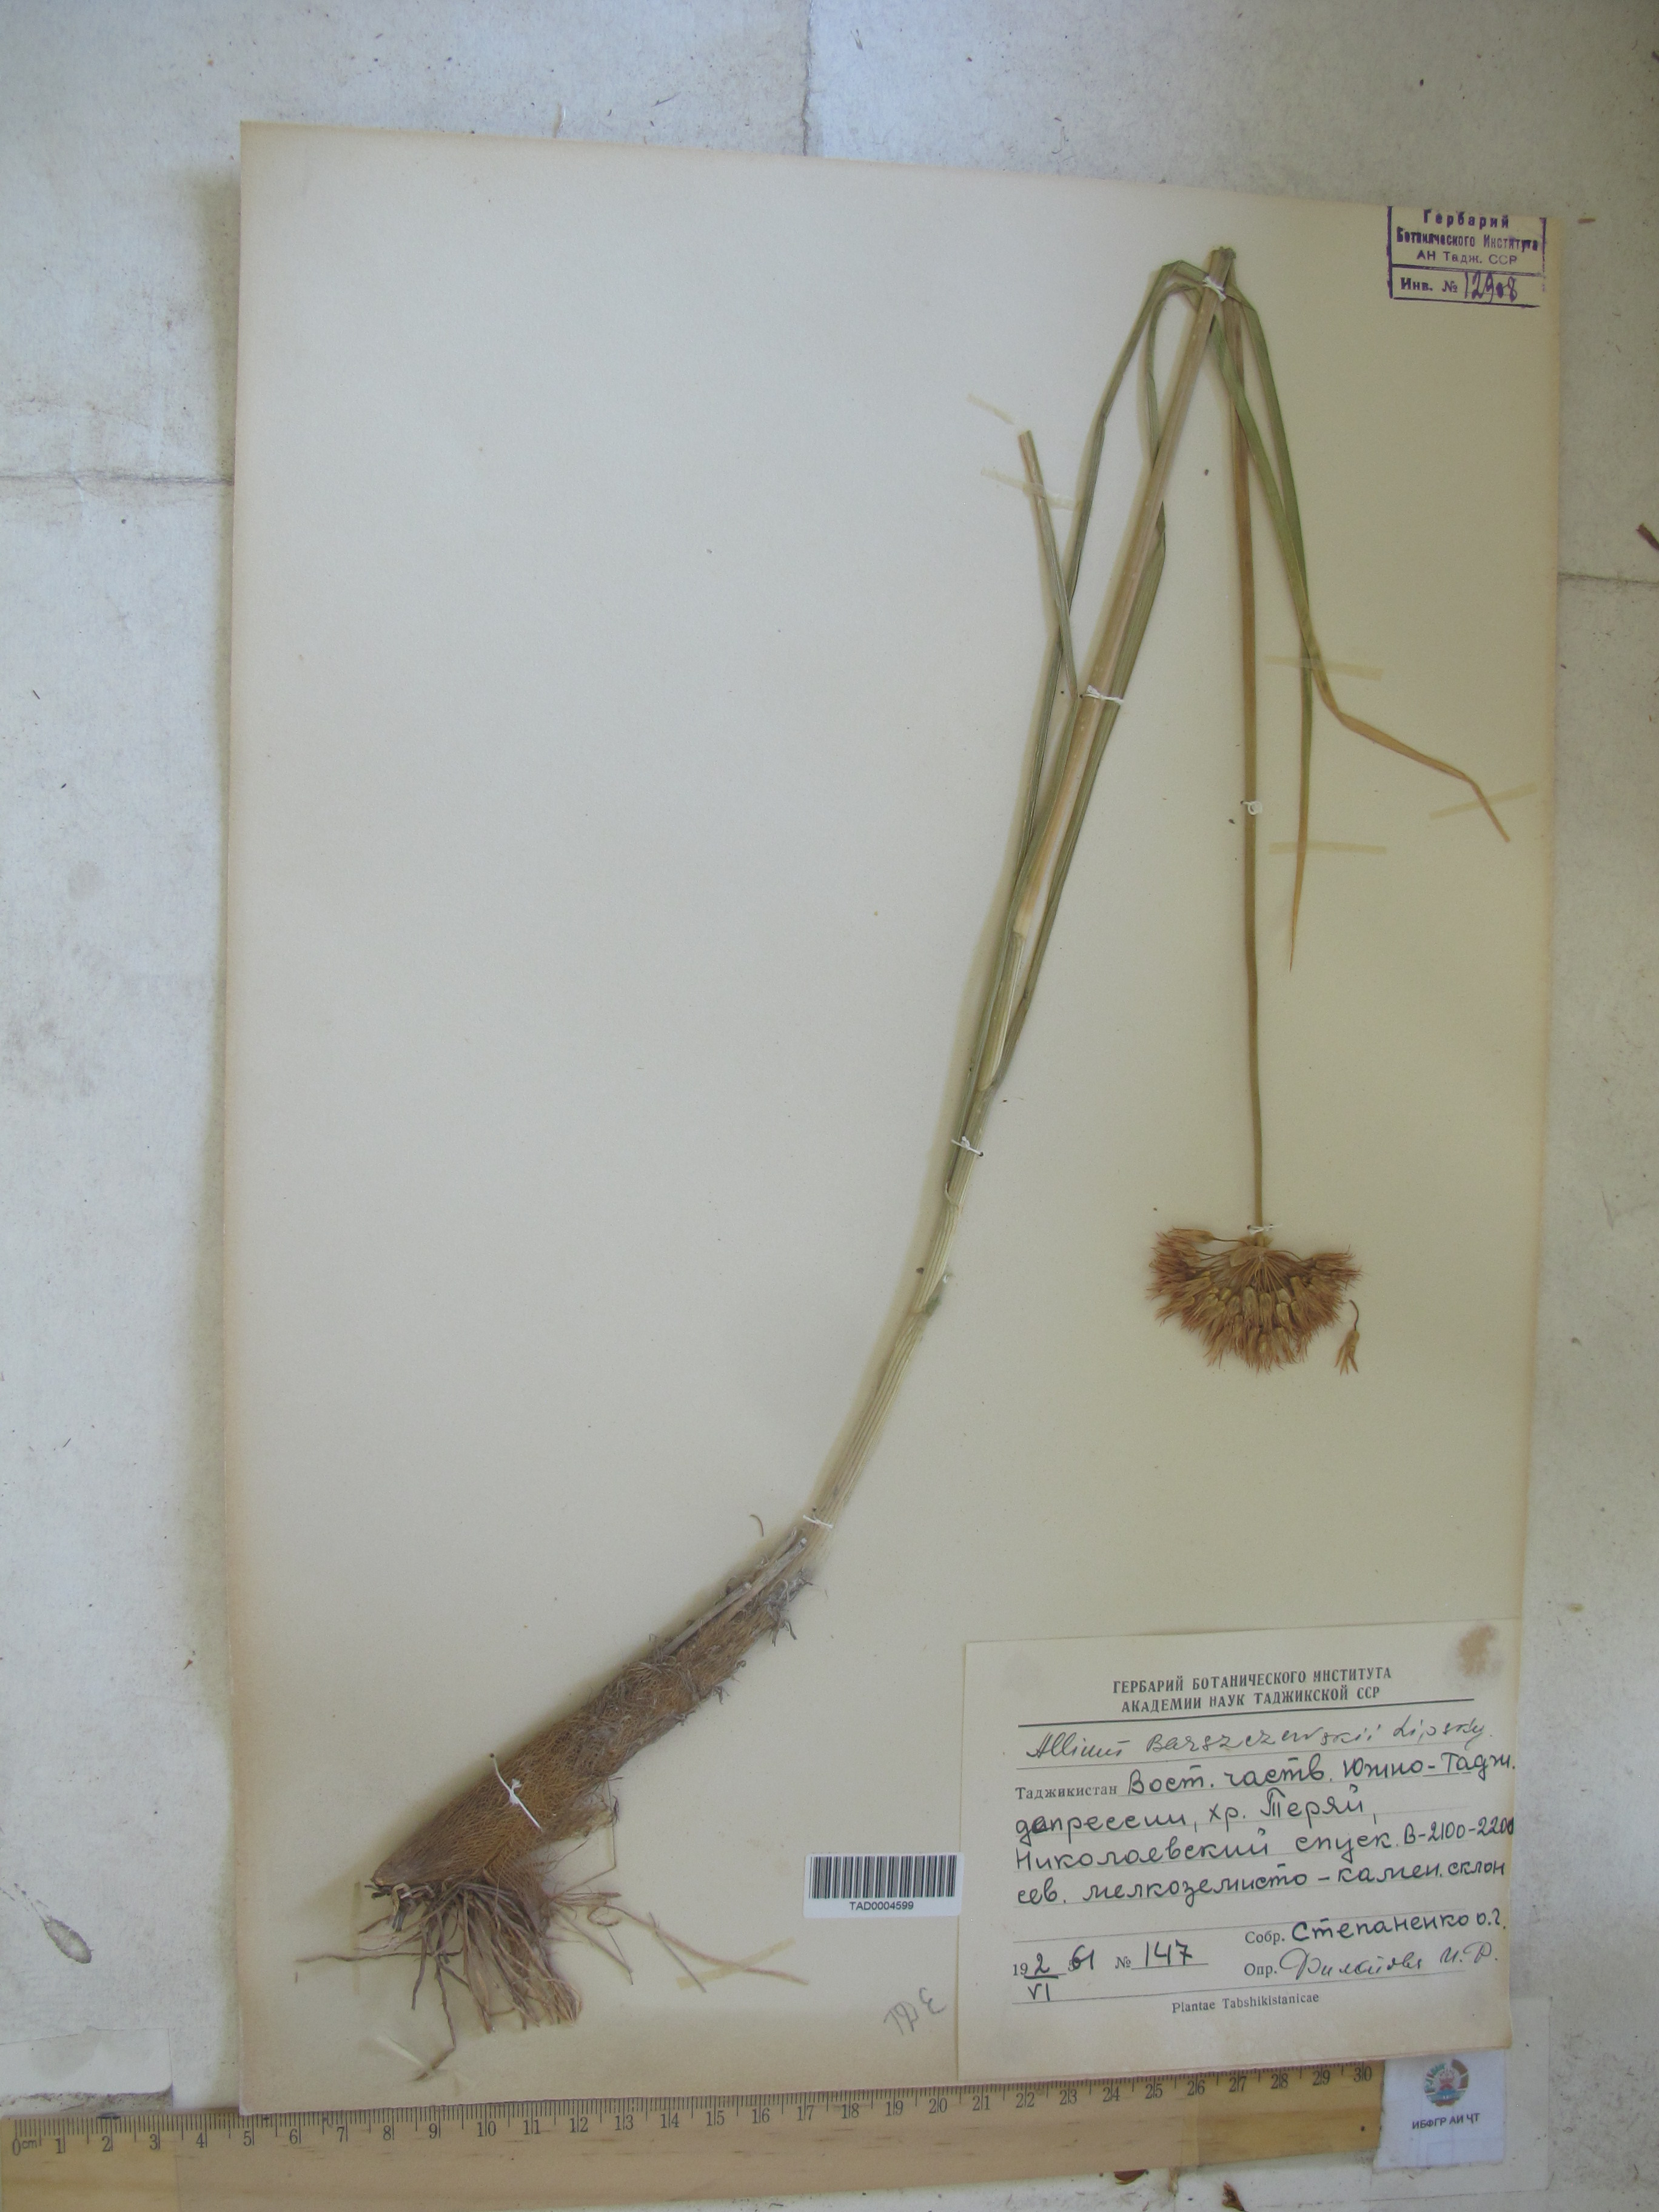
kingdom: Plantae
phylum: Tracheophyta
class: Liliopsida
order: Asparagales
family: Amaryllidaceae
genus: Allium
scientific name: Allium barsczewskii
